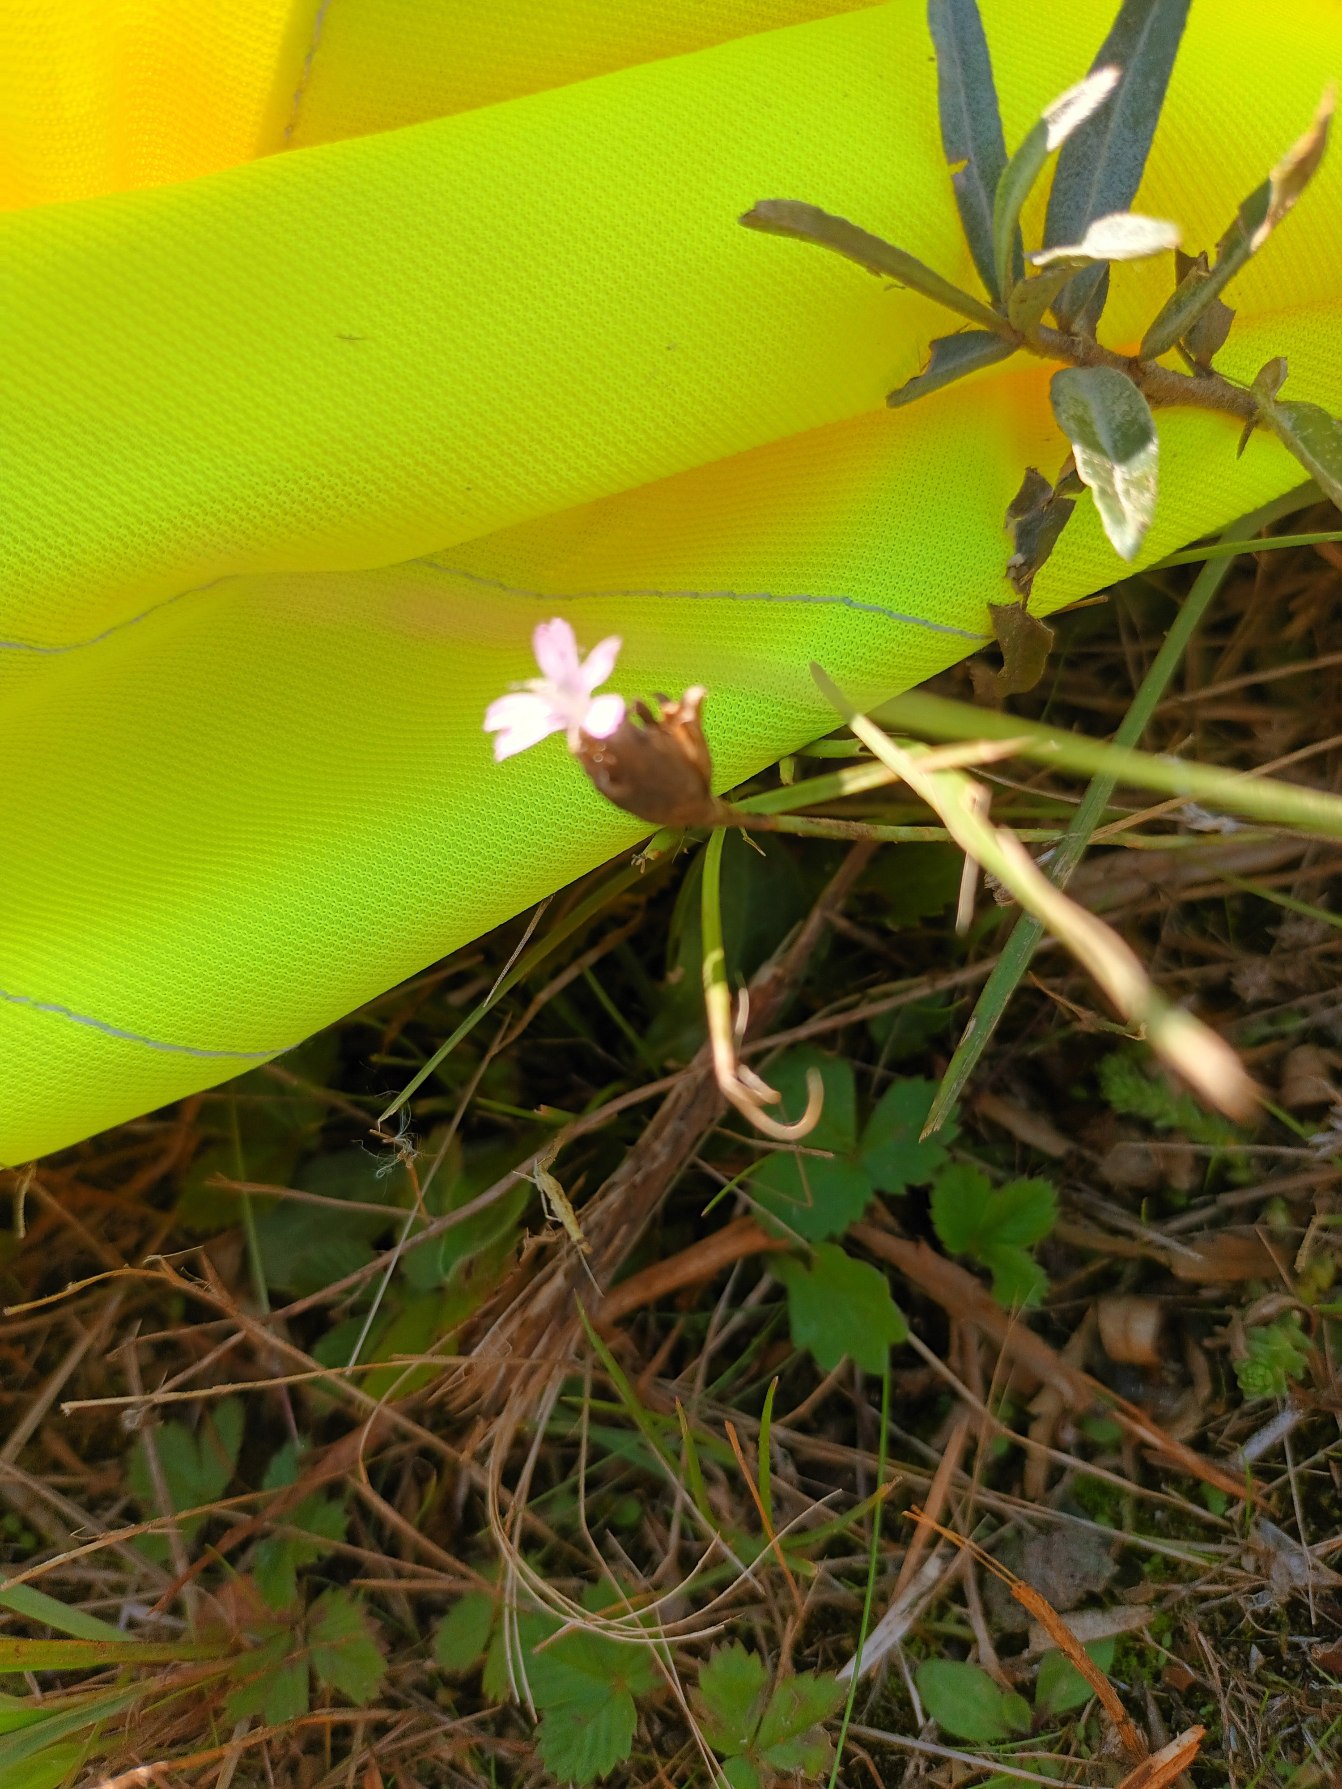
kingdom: Plantae
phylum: Tracheophyta
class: Magnoliopsida
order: Caryophyllales
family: Caryophyllaceae
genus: Petrorhagia
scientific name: Petrorhagia prolifera
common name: Knopnellike
